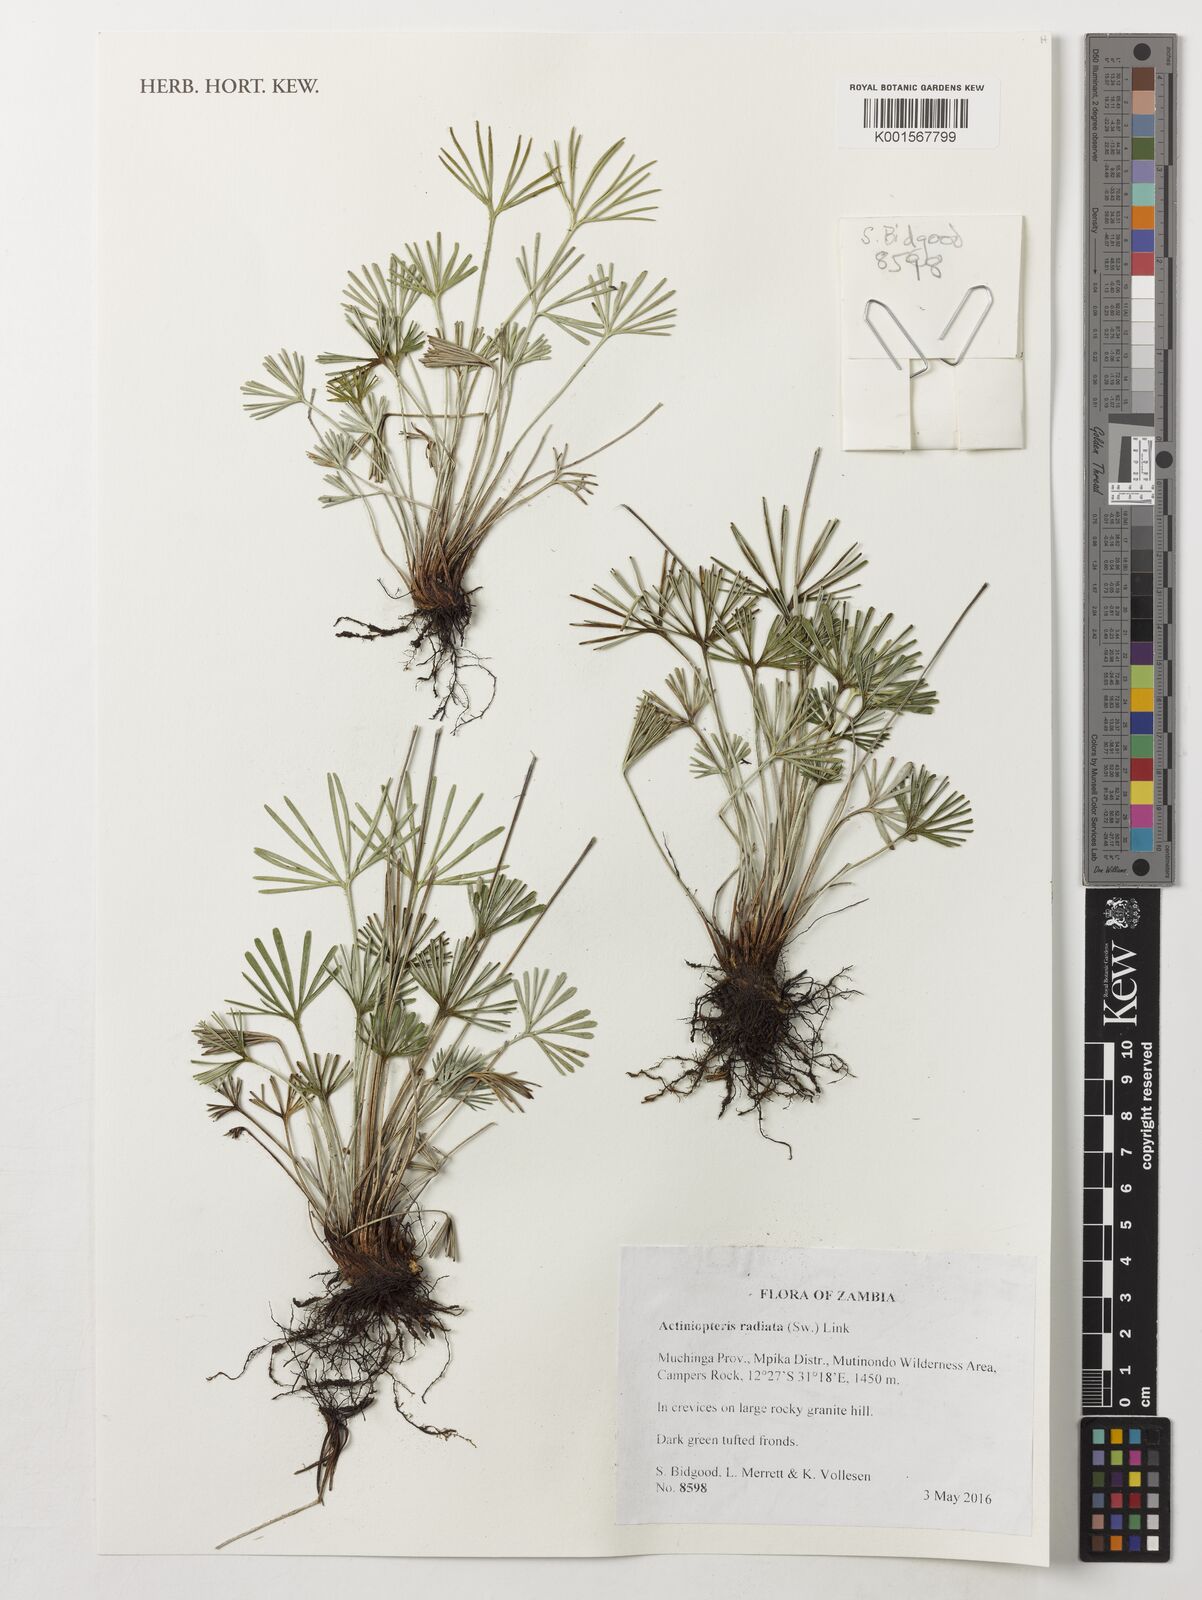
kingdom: Plantae
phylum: Tracheophyta
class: Polypodiopsida
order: Polypodiales
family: Pteridaceae
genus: Actiniopteris
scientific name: Actiniopteris radiata
